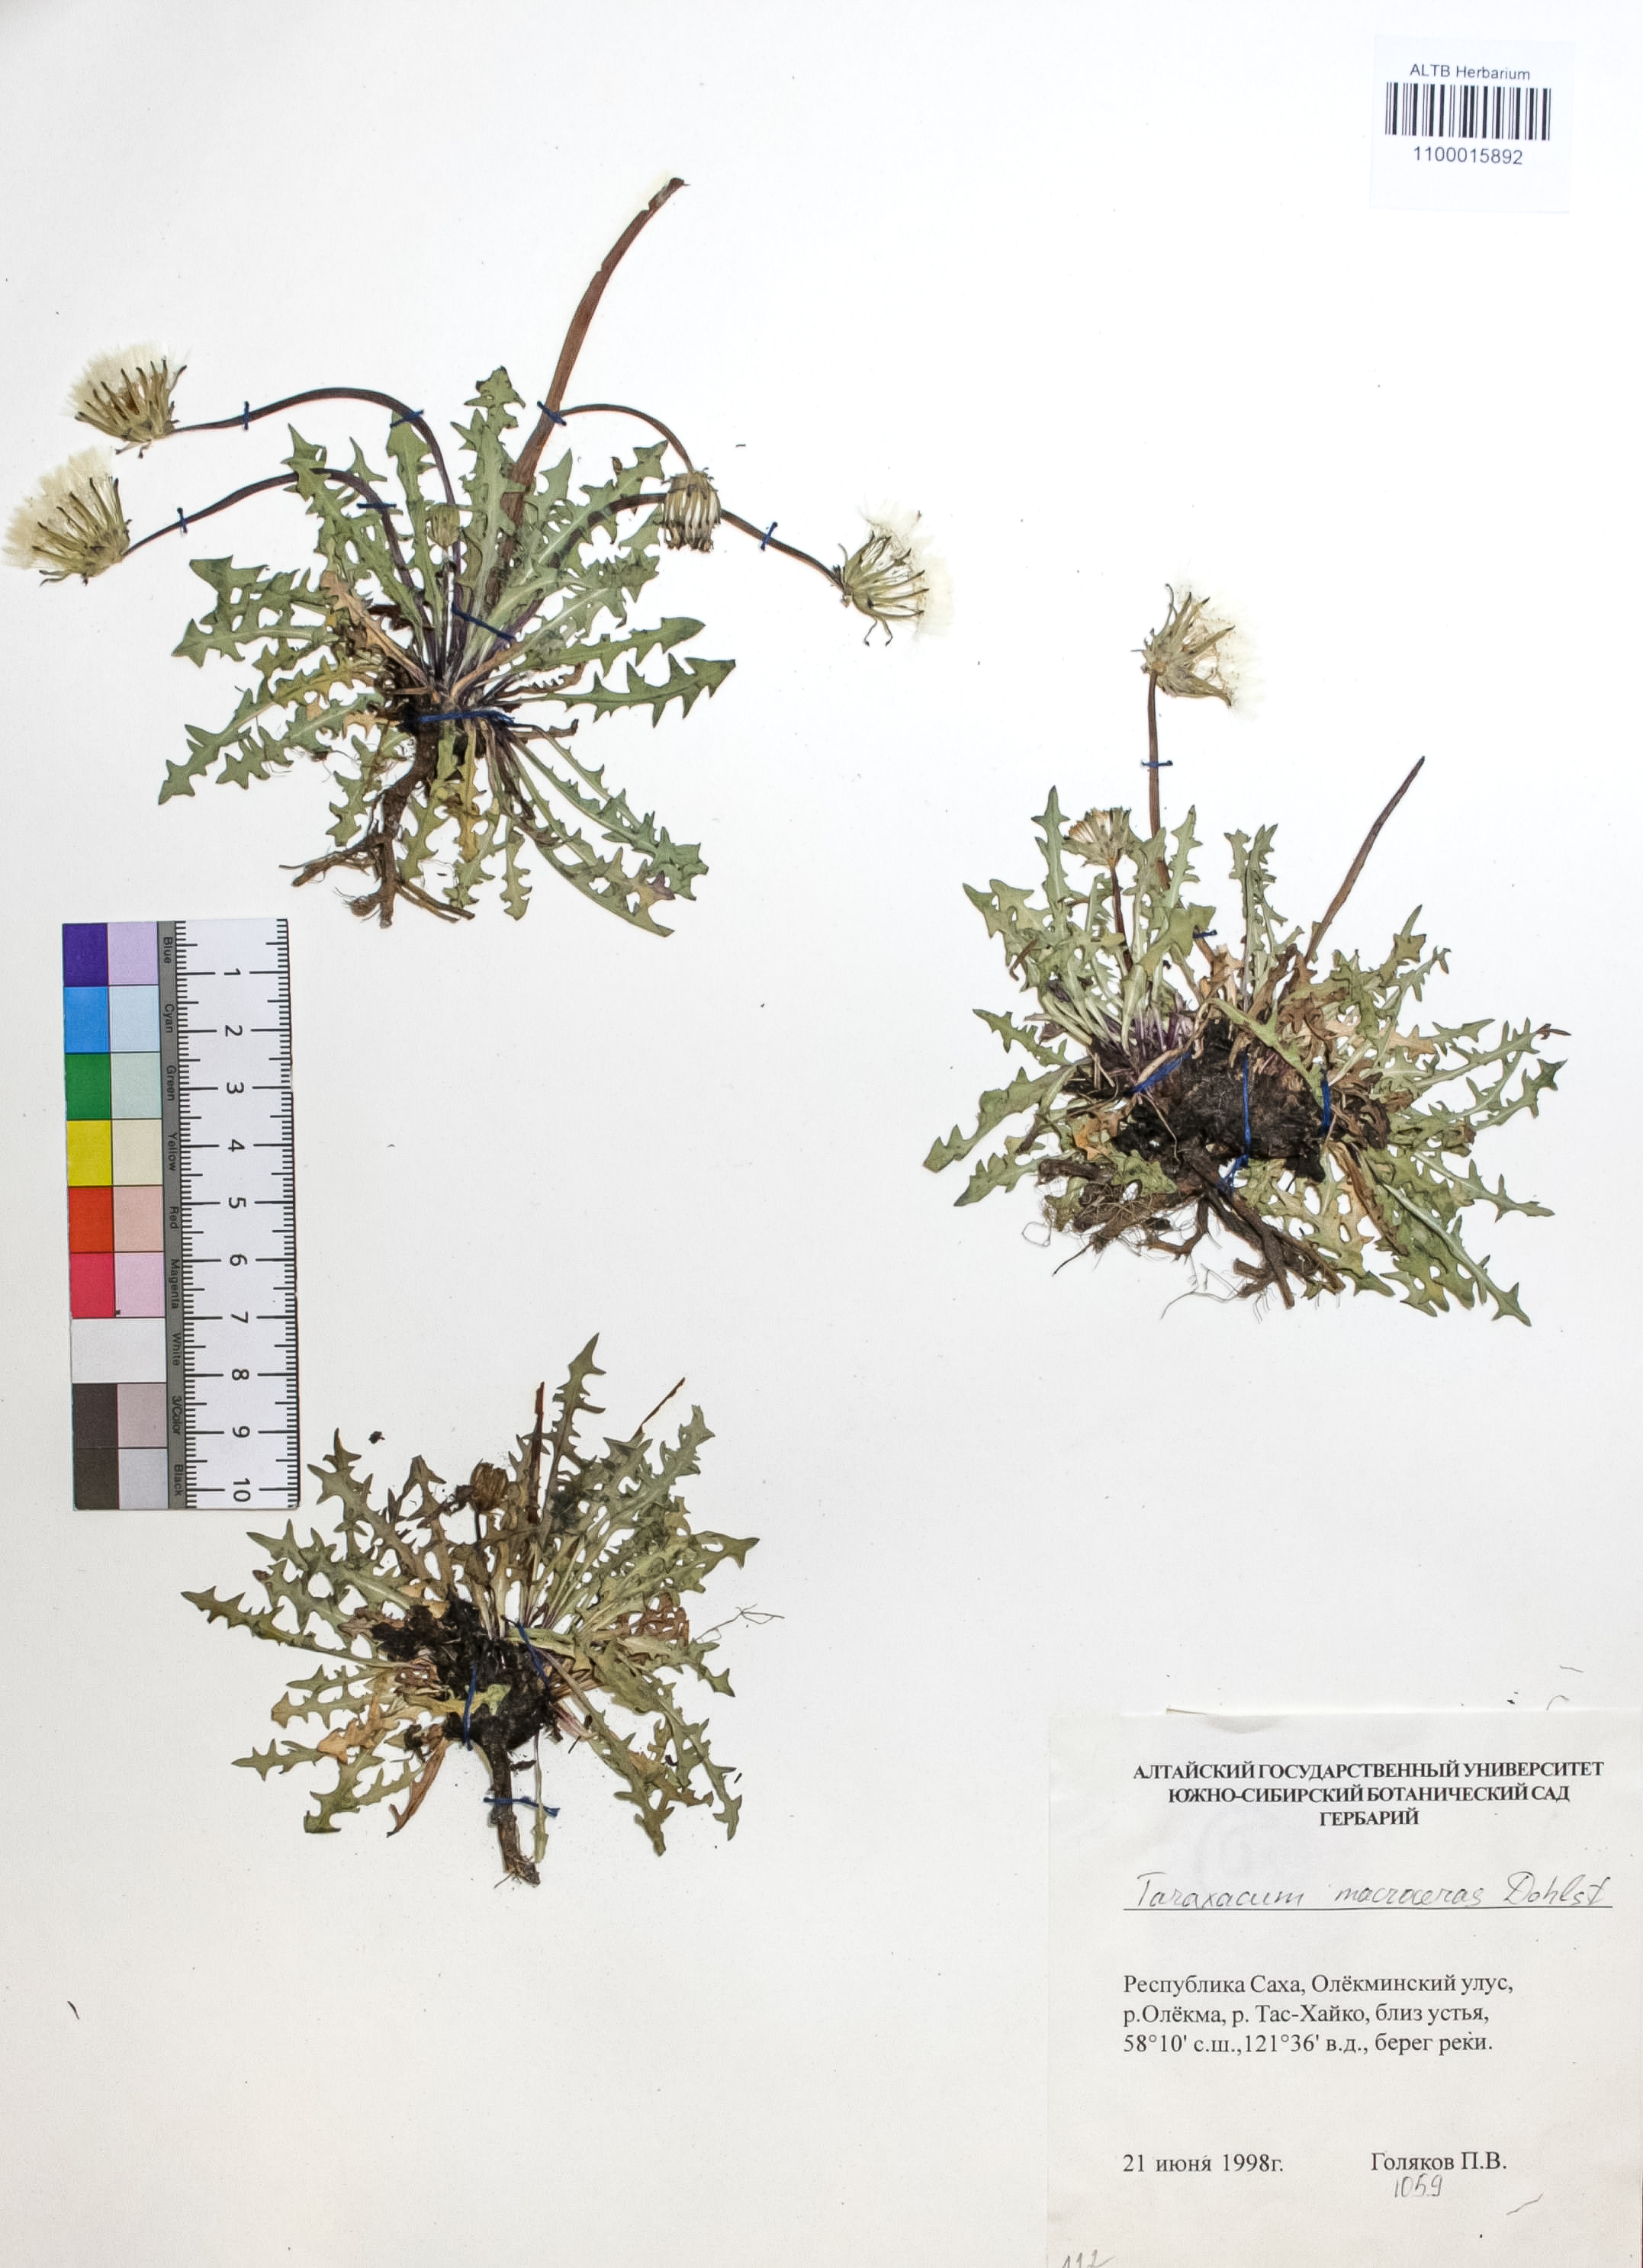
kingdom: Plantae
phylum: Tracheophyta
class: Magnoliopsida
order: Asterales
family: Asteraceae
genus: Taraxacum
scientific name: Taraxacum macroceras
